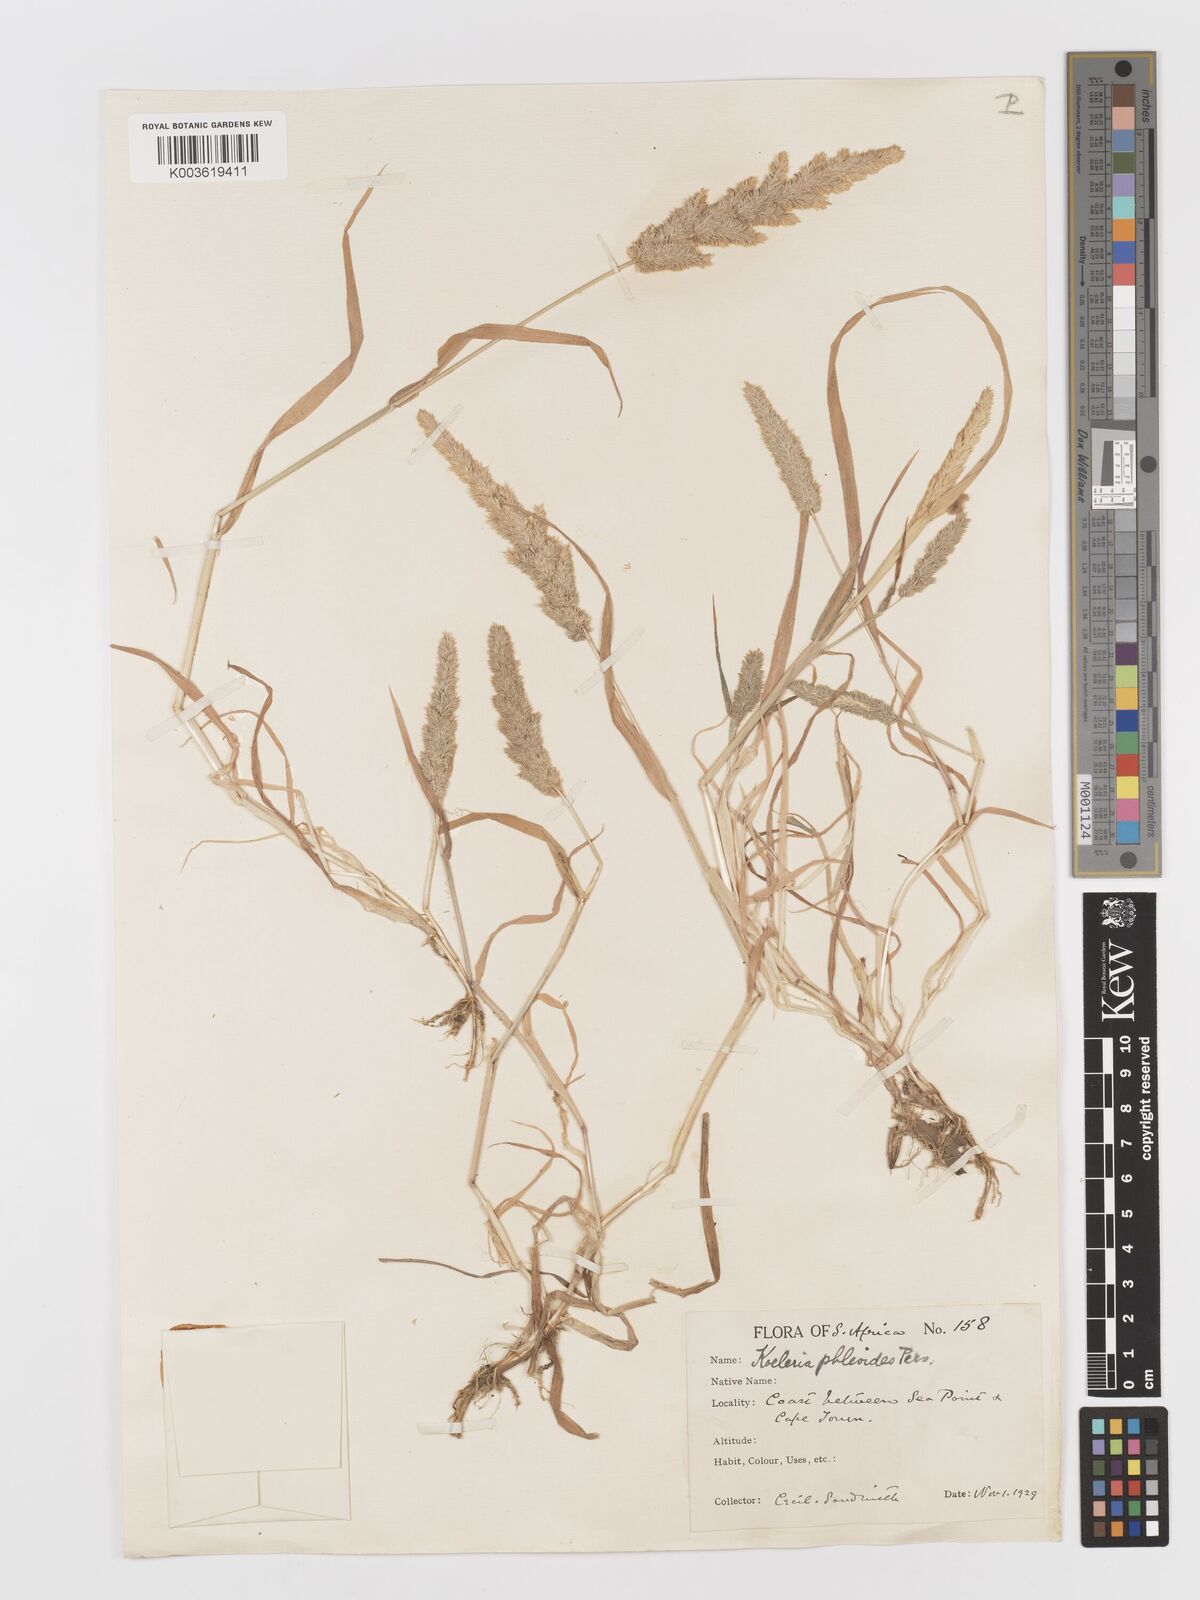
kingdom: Plantae
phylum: Tracheophyta
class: Liliopsida
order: Poales
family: Poaceae
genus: Rostraria
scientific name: Rostraria cristata
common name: Mediterranean hair-grass
